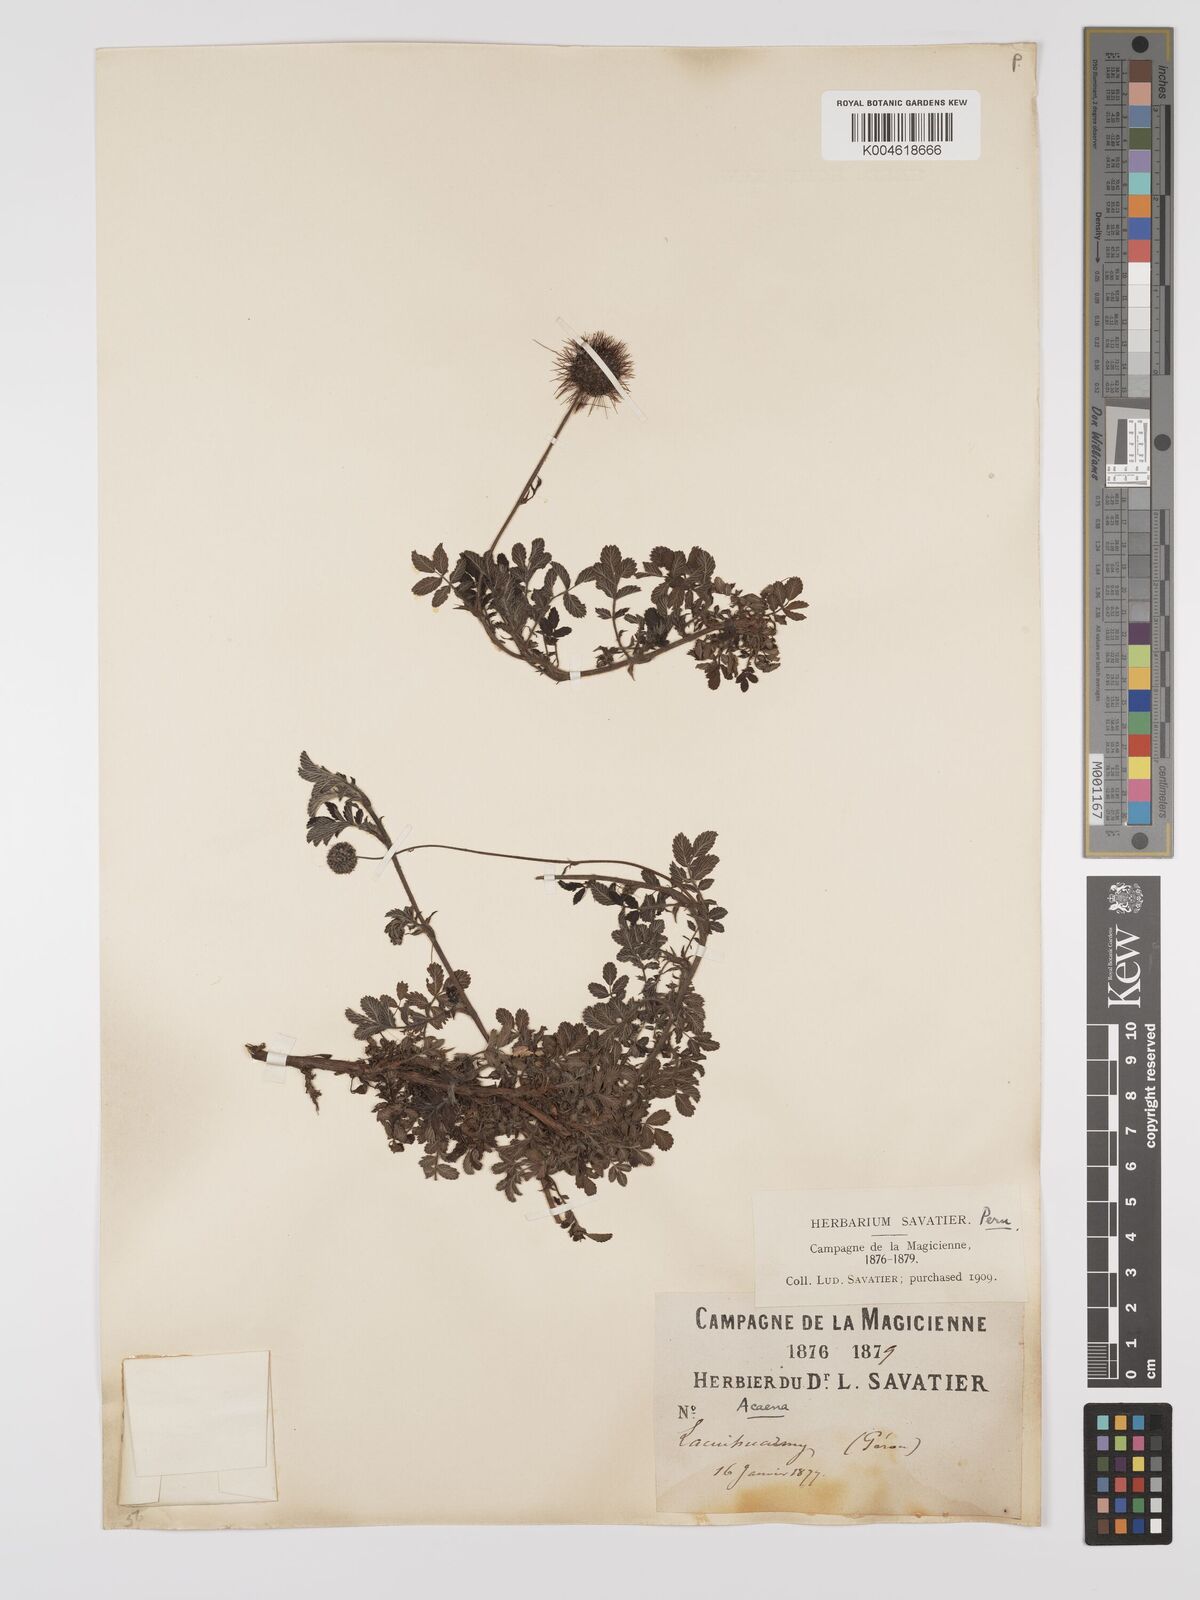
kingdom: Plantae
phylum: Tracheophyta
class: Magnoliopsida
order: Rosales
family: Rosaceae
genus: Acaena
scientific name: Acaena ovalifolia
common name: Two-spined acaena
